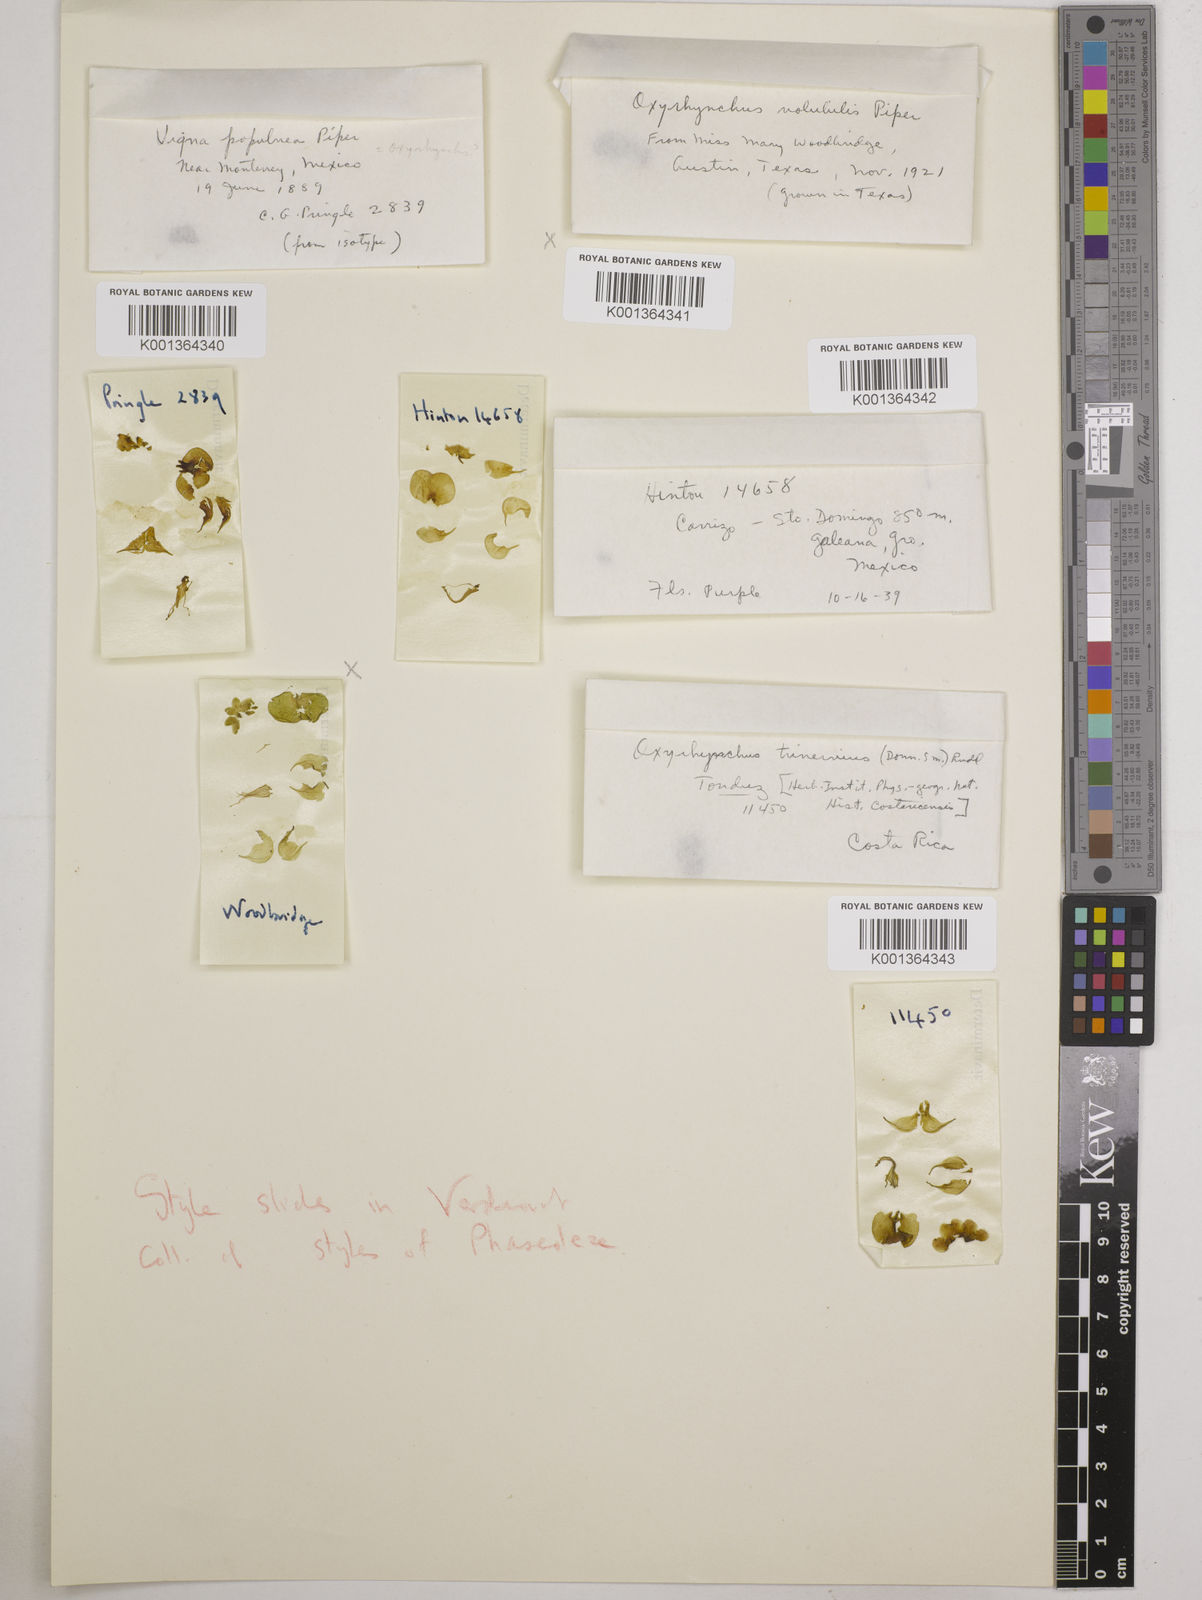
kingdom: Plantae
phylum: Tracheophyta
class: Magnoliopsida
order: Fabales
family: Fabaceae
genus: Oxyrhynchus
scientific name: Oxyrhynchus volubilis
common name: Twining bluehood
